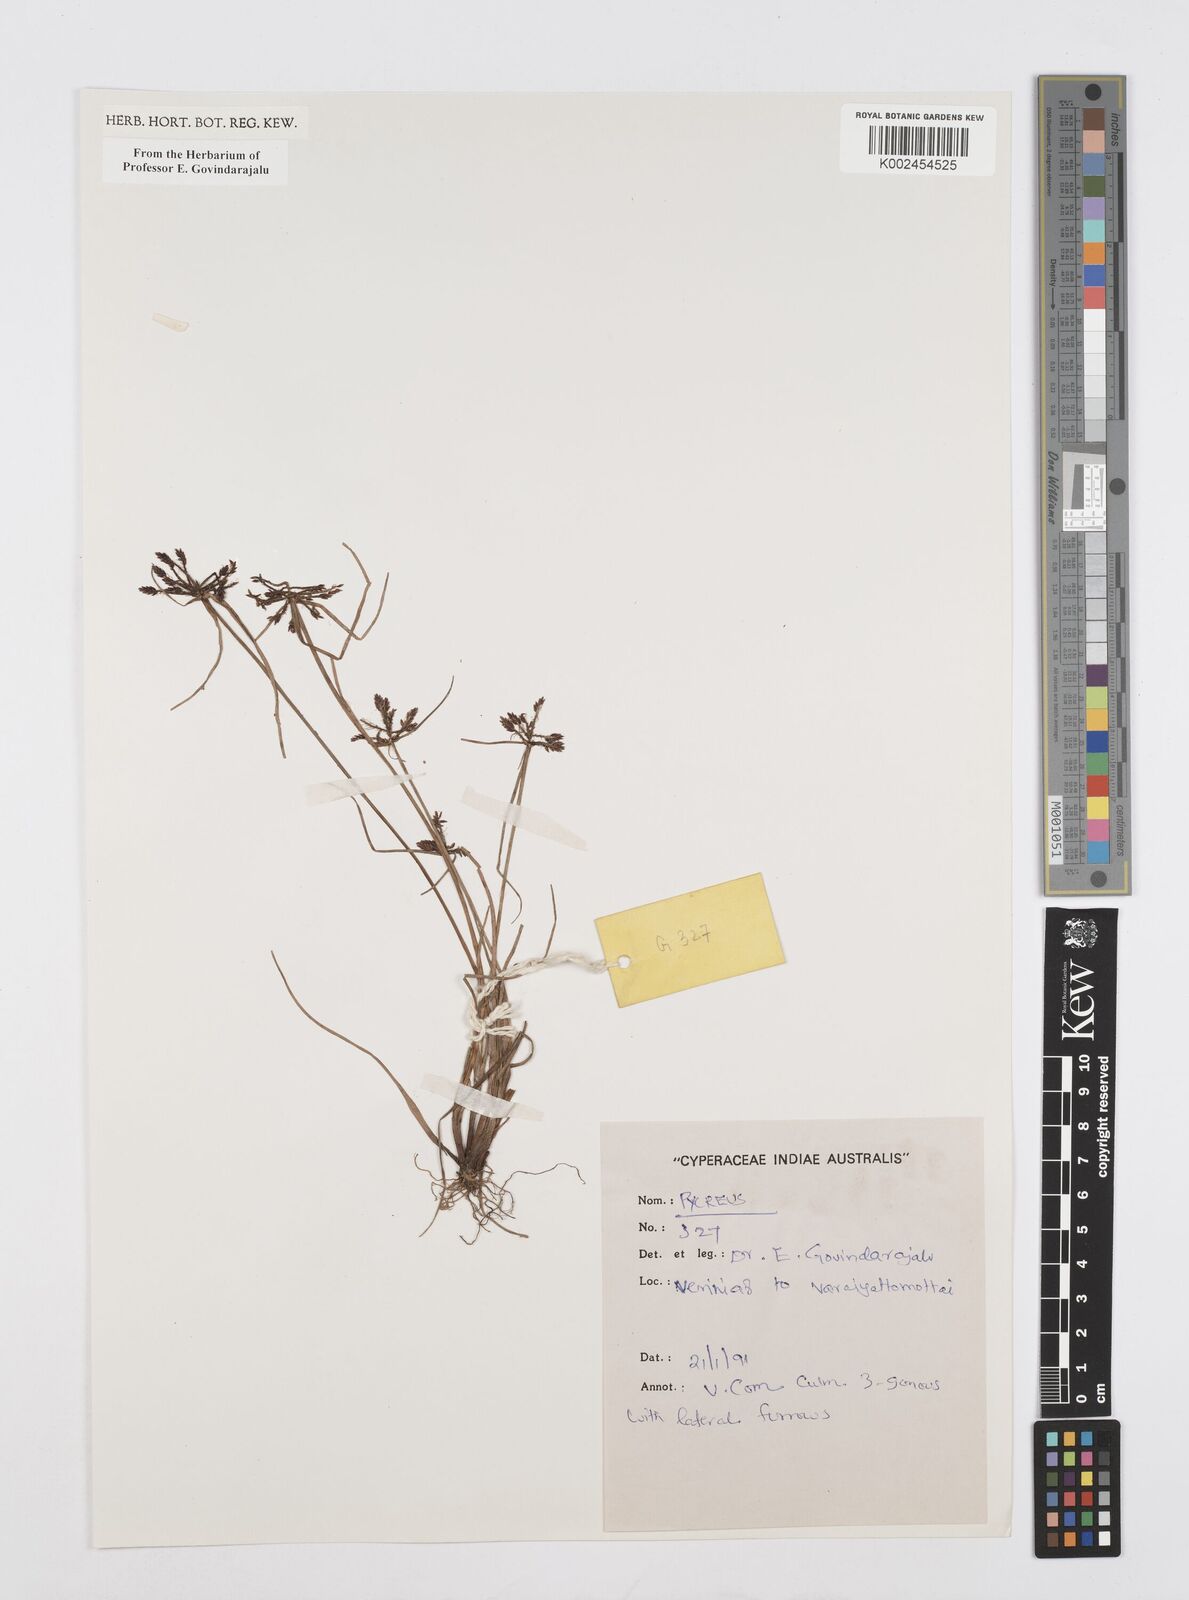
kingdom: Plantae
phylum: Tracheophyta
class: Liliopsida
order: Poales
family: Cyperaceae
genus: Cyperus
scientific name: Cyperus
